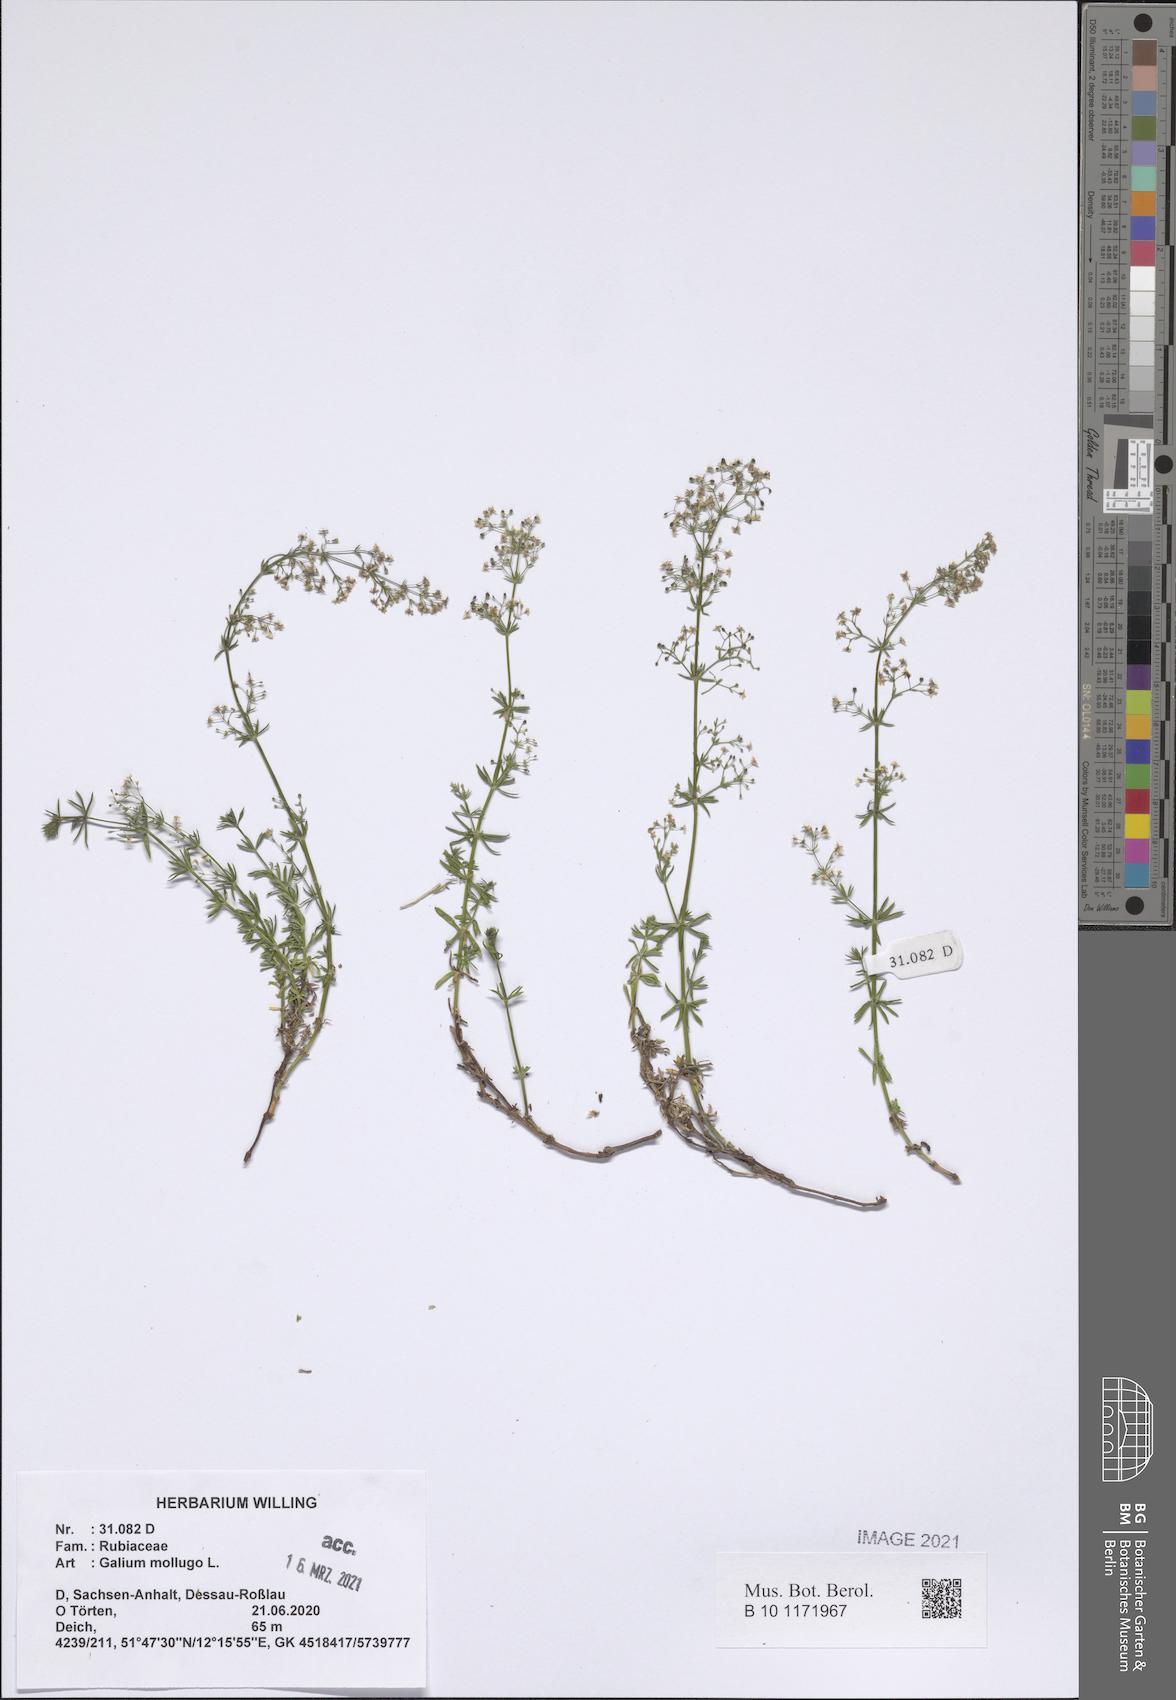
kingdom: Plantae
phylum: Tracheophyta
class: Magnoliopsida
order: Gentianales
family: Rubiaceae
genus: Galium
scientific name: Galium mollugo
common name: Hedge bedstraw
